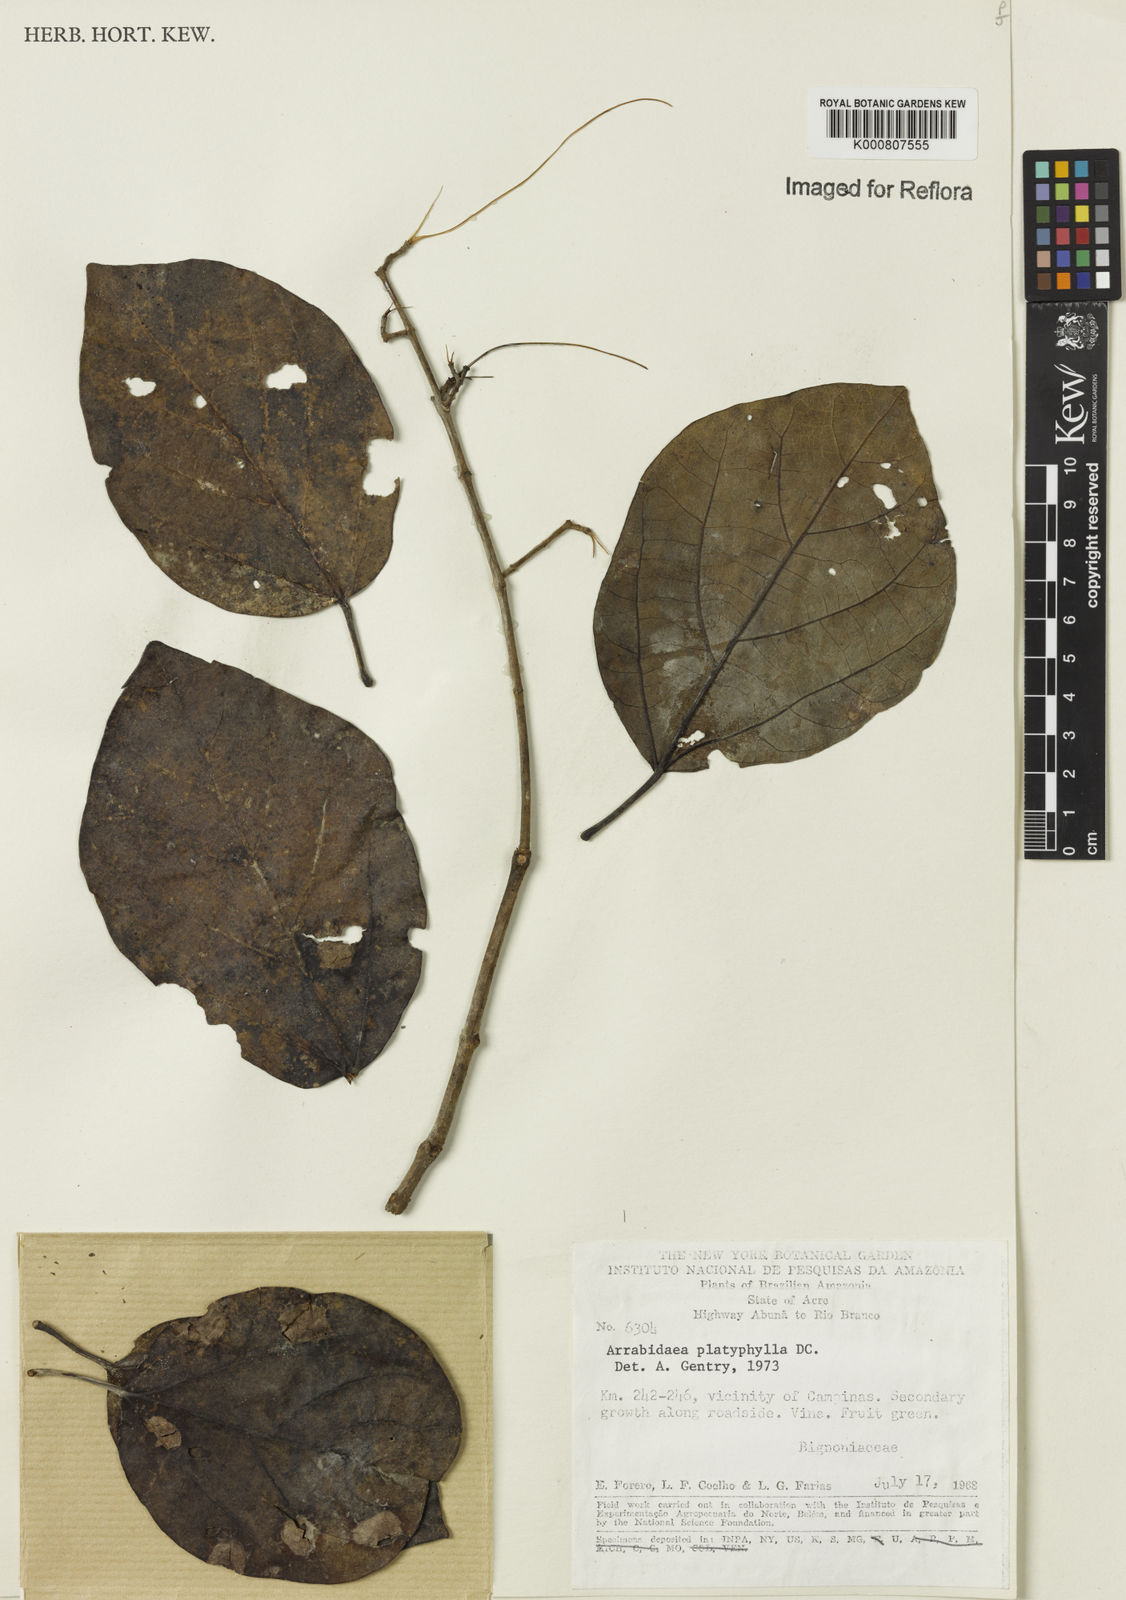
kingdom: Plantae
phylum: Tracheophyta
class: Magnoliopsida
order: Lamiales
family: Bignoniaceae
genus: Xylophragma
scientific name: Xylophragma platyphyllum
